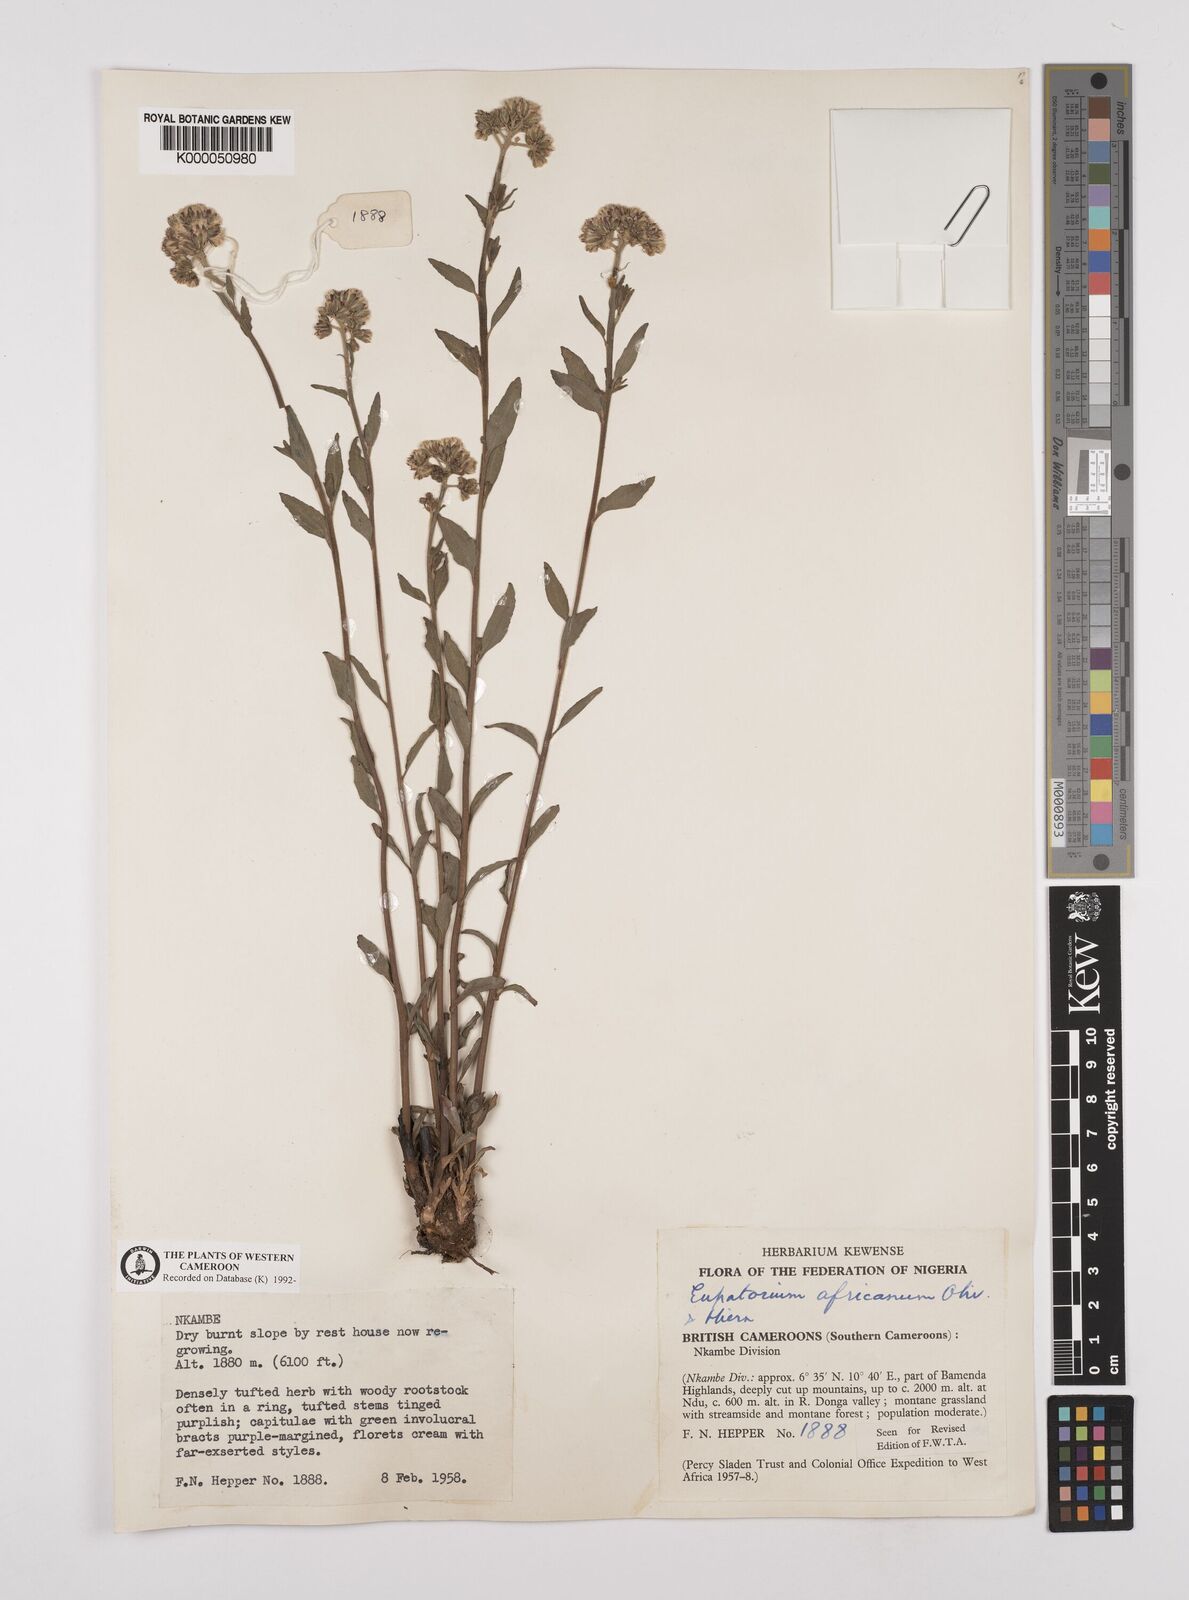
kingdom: Plantae
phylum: Tracheophyta
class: Magnoliopsida
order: Asterales
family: Asteraceae
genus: Stomatanthes
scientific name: Stomatanthes africanus
